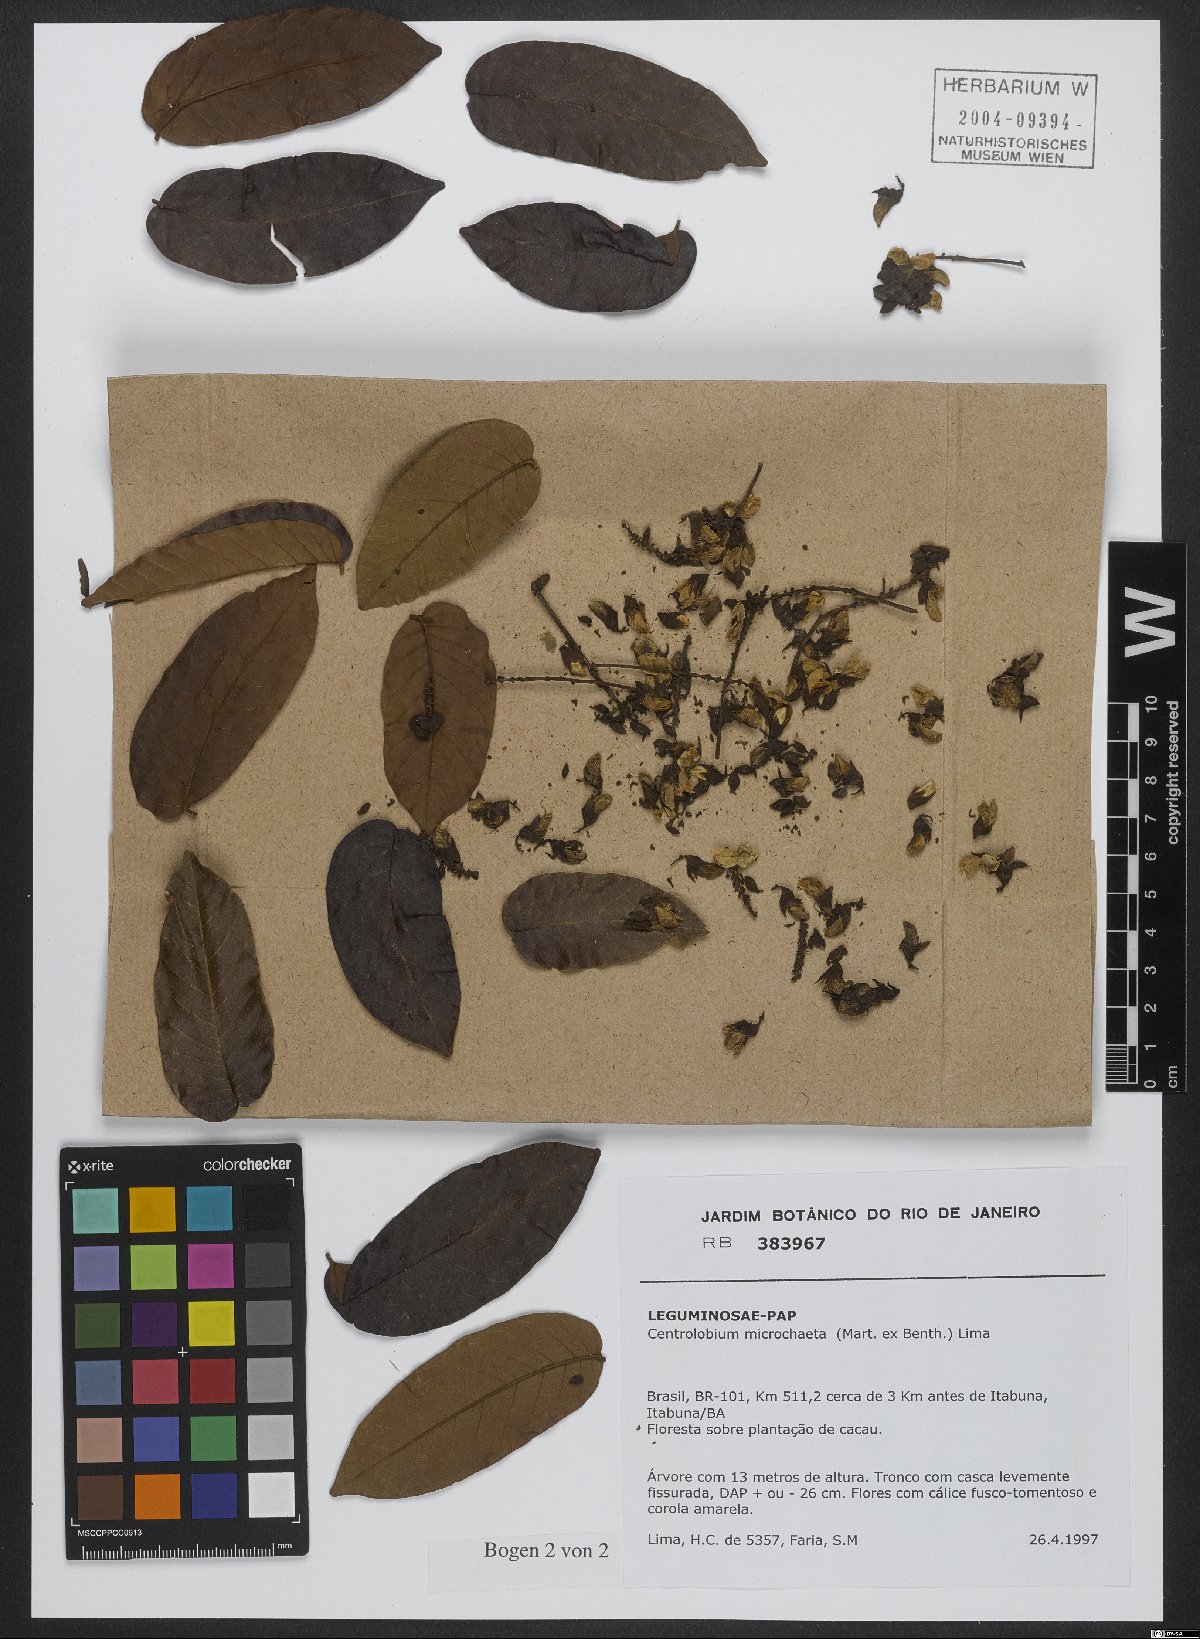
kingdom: Plantae
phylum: Tracheophyta
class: Magnoliopsida
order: Fabales
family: Fabaceae
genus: Centrolobium
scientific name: Centrolobium microchaete
